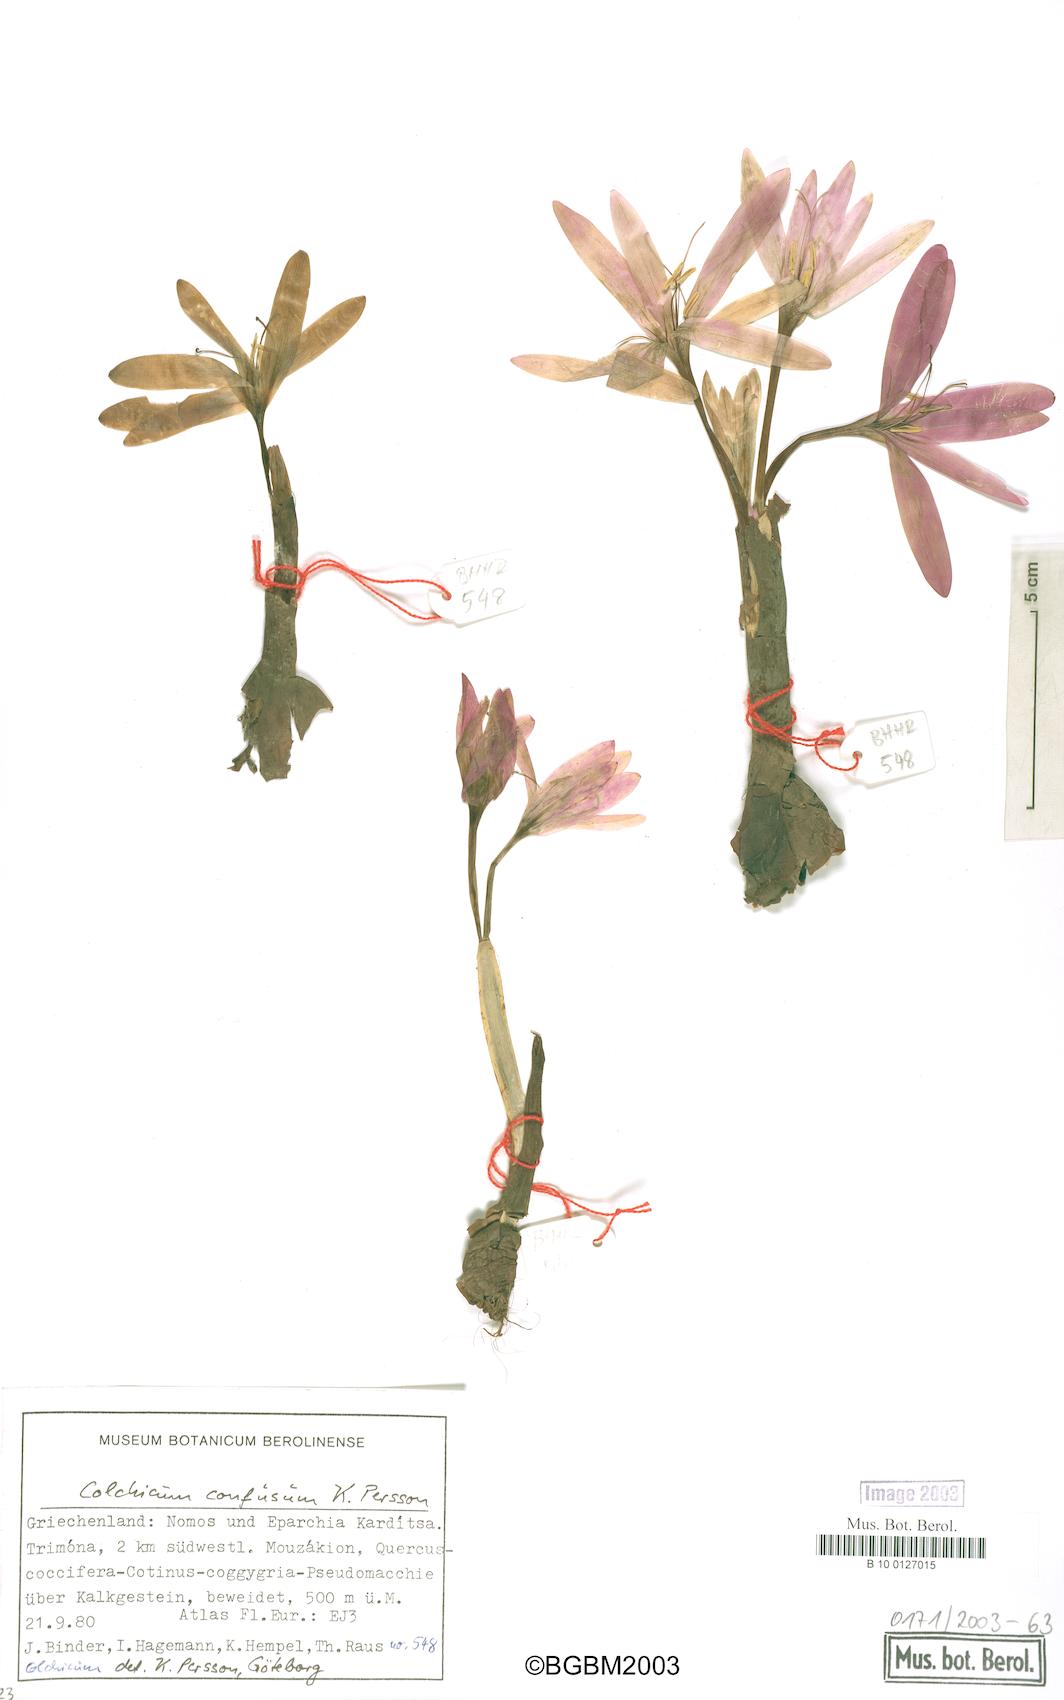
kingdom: Plantae
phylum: Tracheophyta
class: Liliopsida
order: Liliales
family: Colchicaceae
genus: Colchicum
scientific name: Colchicum confusum
